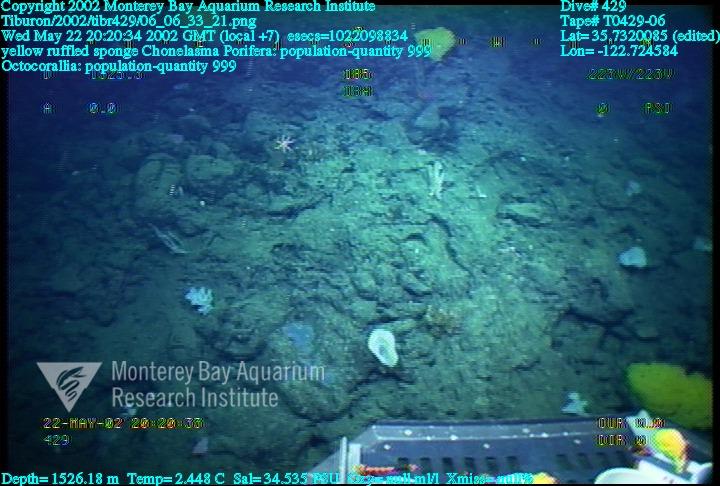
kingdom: Animalia
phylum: Porifera
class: Hexactinellida
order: Sceptrulophora
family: Euretidae
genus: Chonelasma
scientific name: Chonelasma
